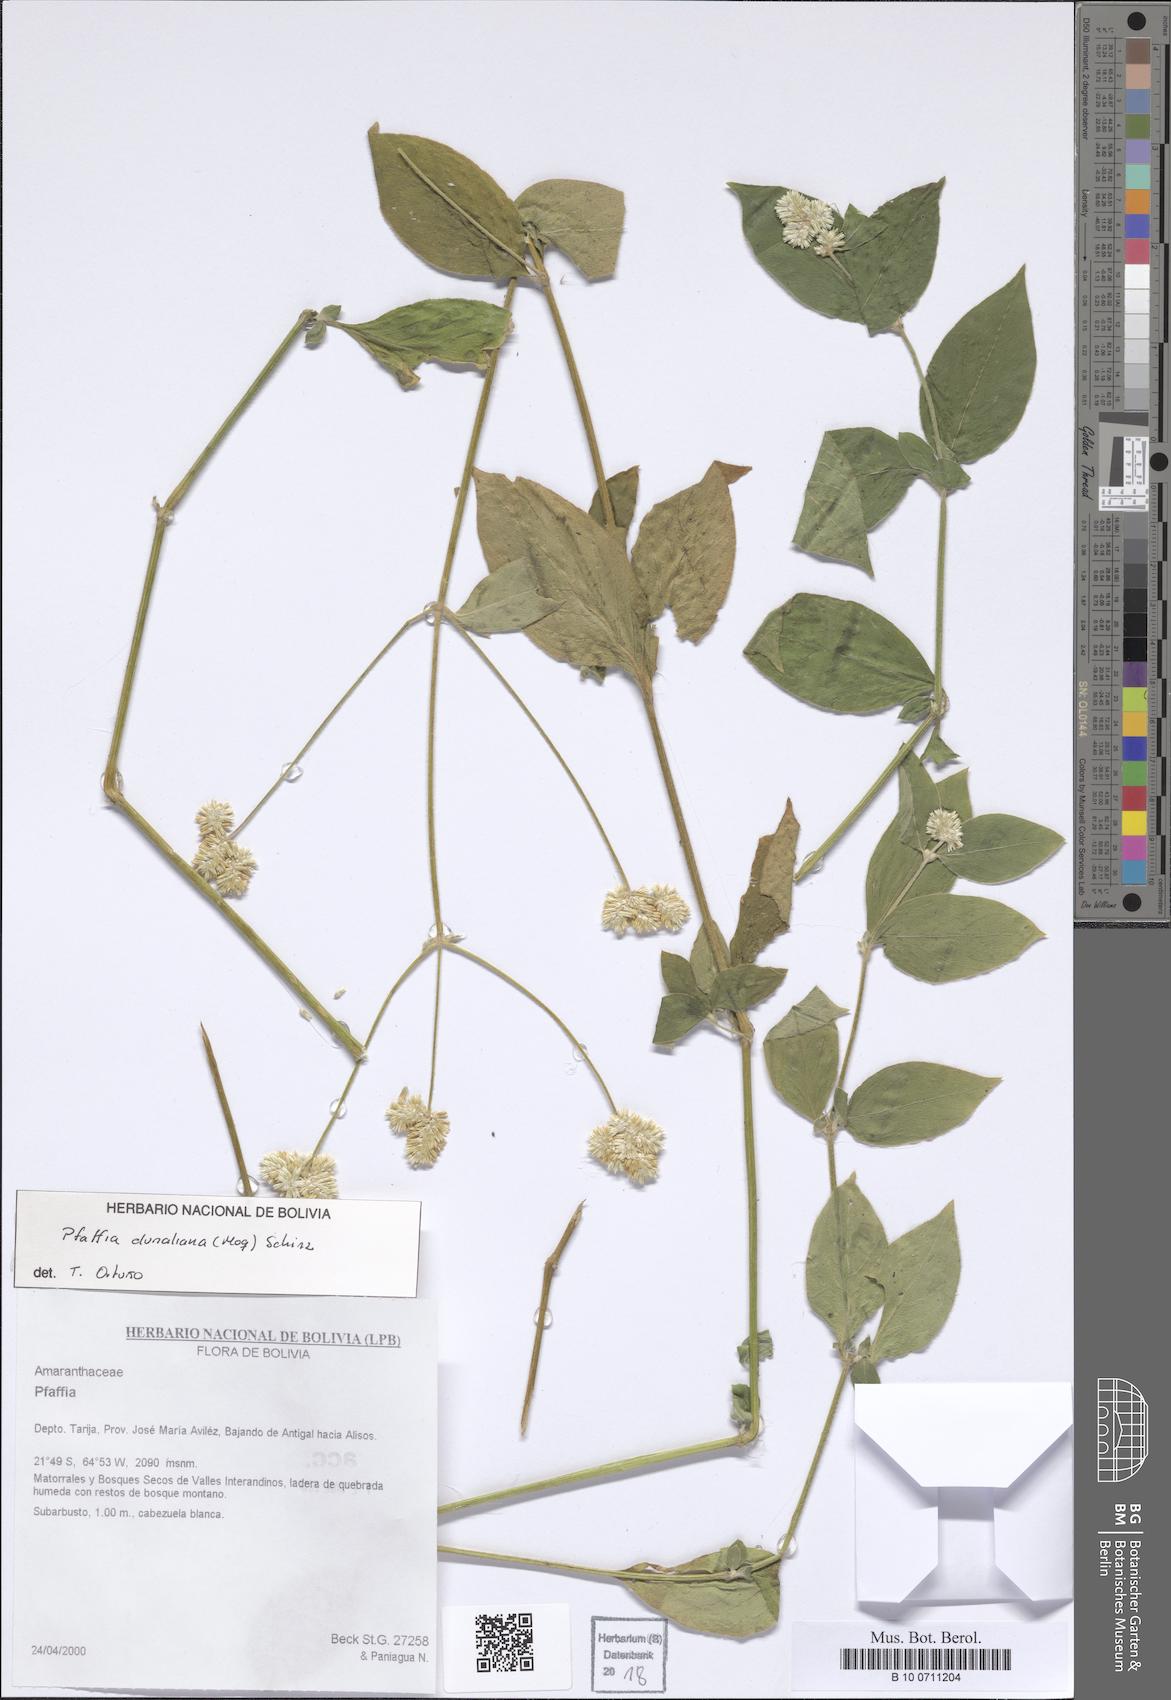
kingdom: Plantae
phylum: Tracheophyta
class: Magnoliopsida
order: Caryophyllales
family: Amaranthaceae
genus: Pfaffia
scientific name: Pfaffia glomerata
